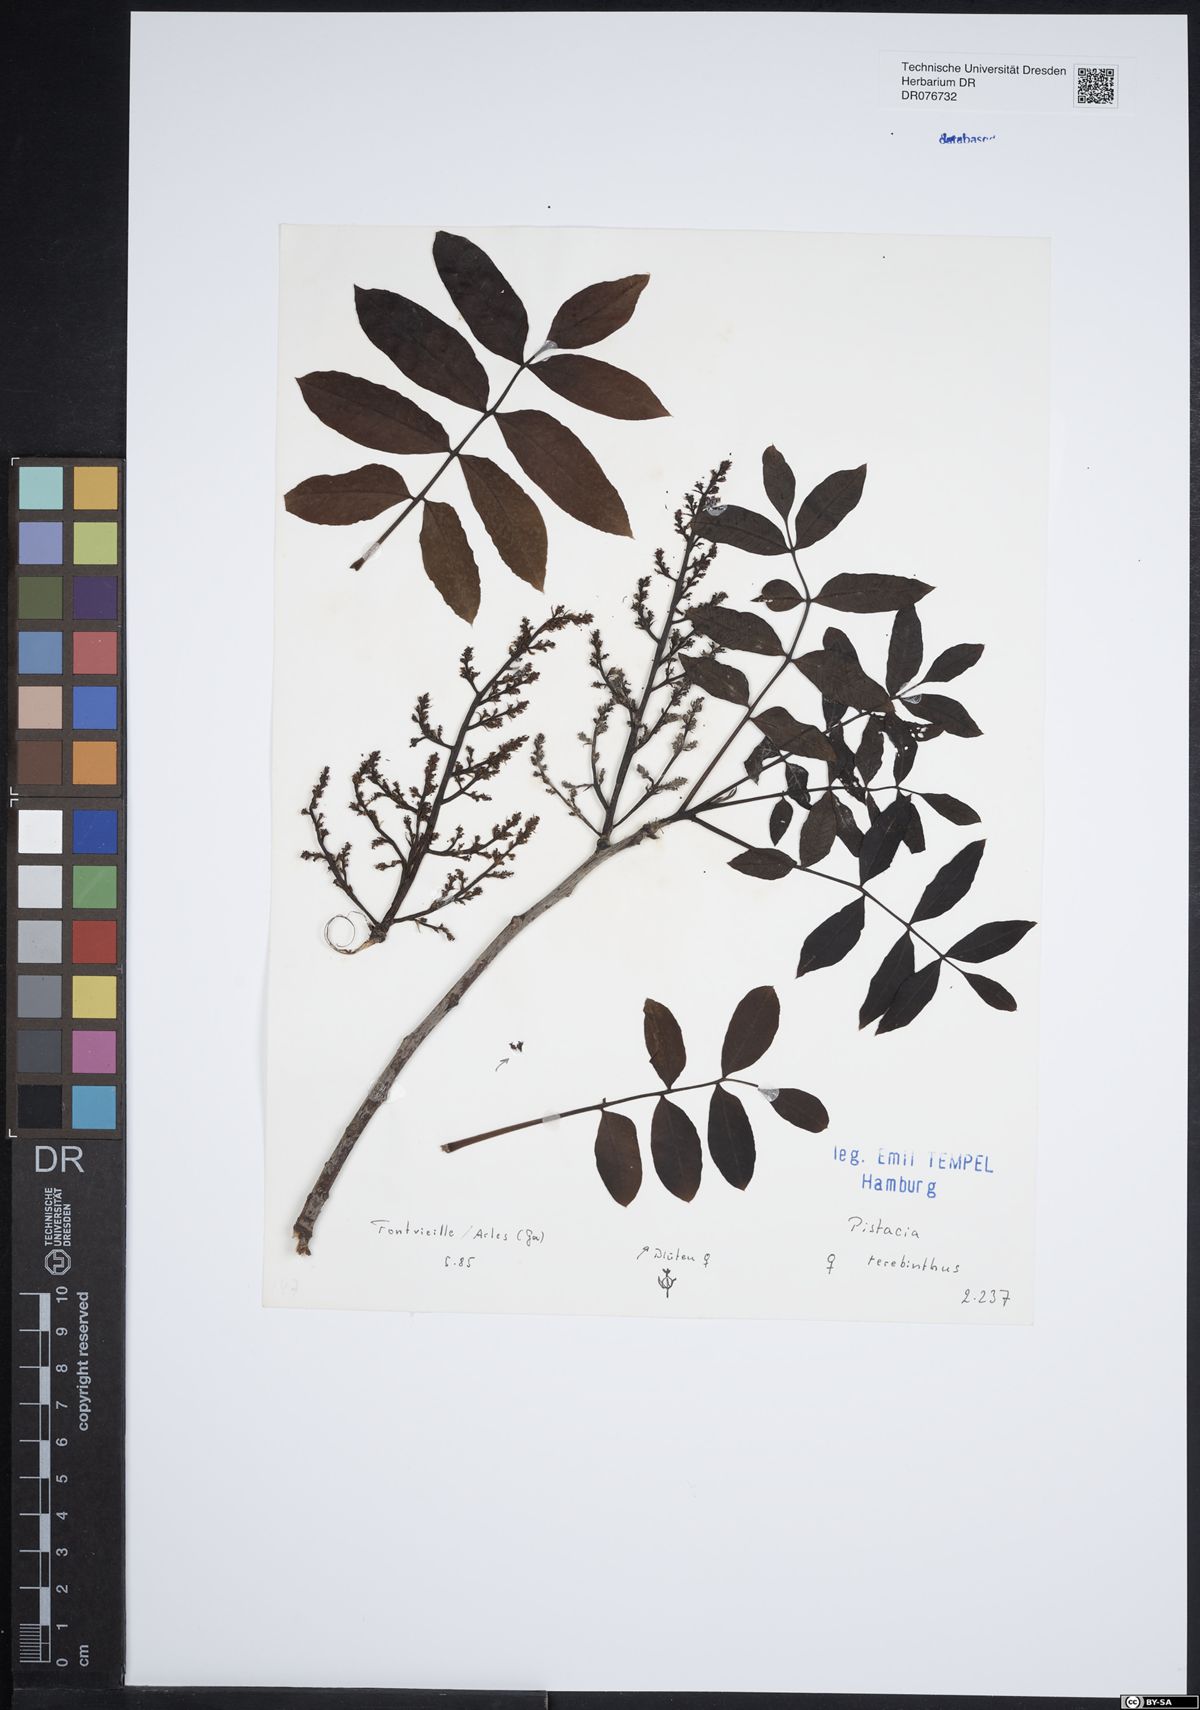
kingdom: Plantae
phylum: Tracheophyta
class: Magnoliopsida
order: Sapindales
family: Anacardiaceae
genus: Pistacia
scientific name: Pistacia terebinthus
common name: Terebinth
